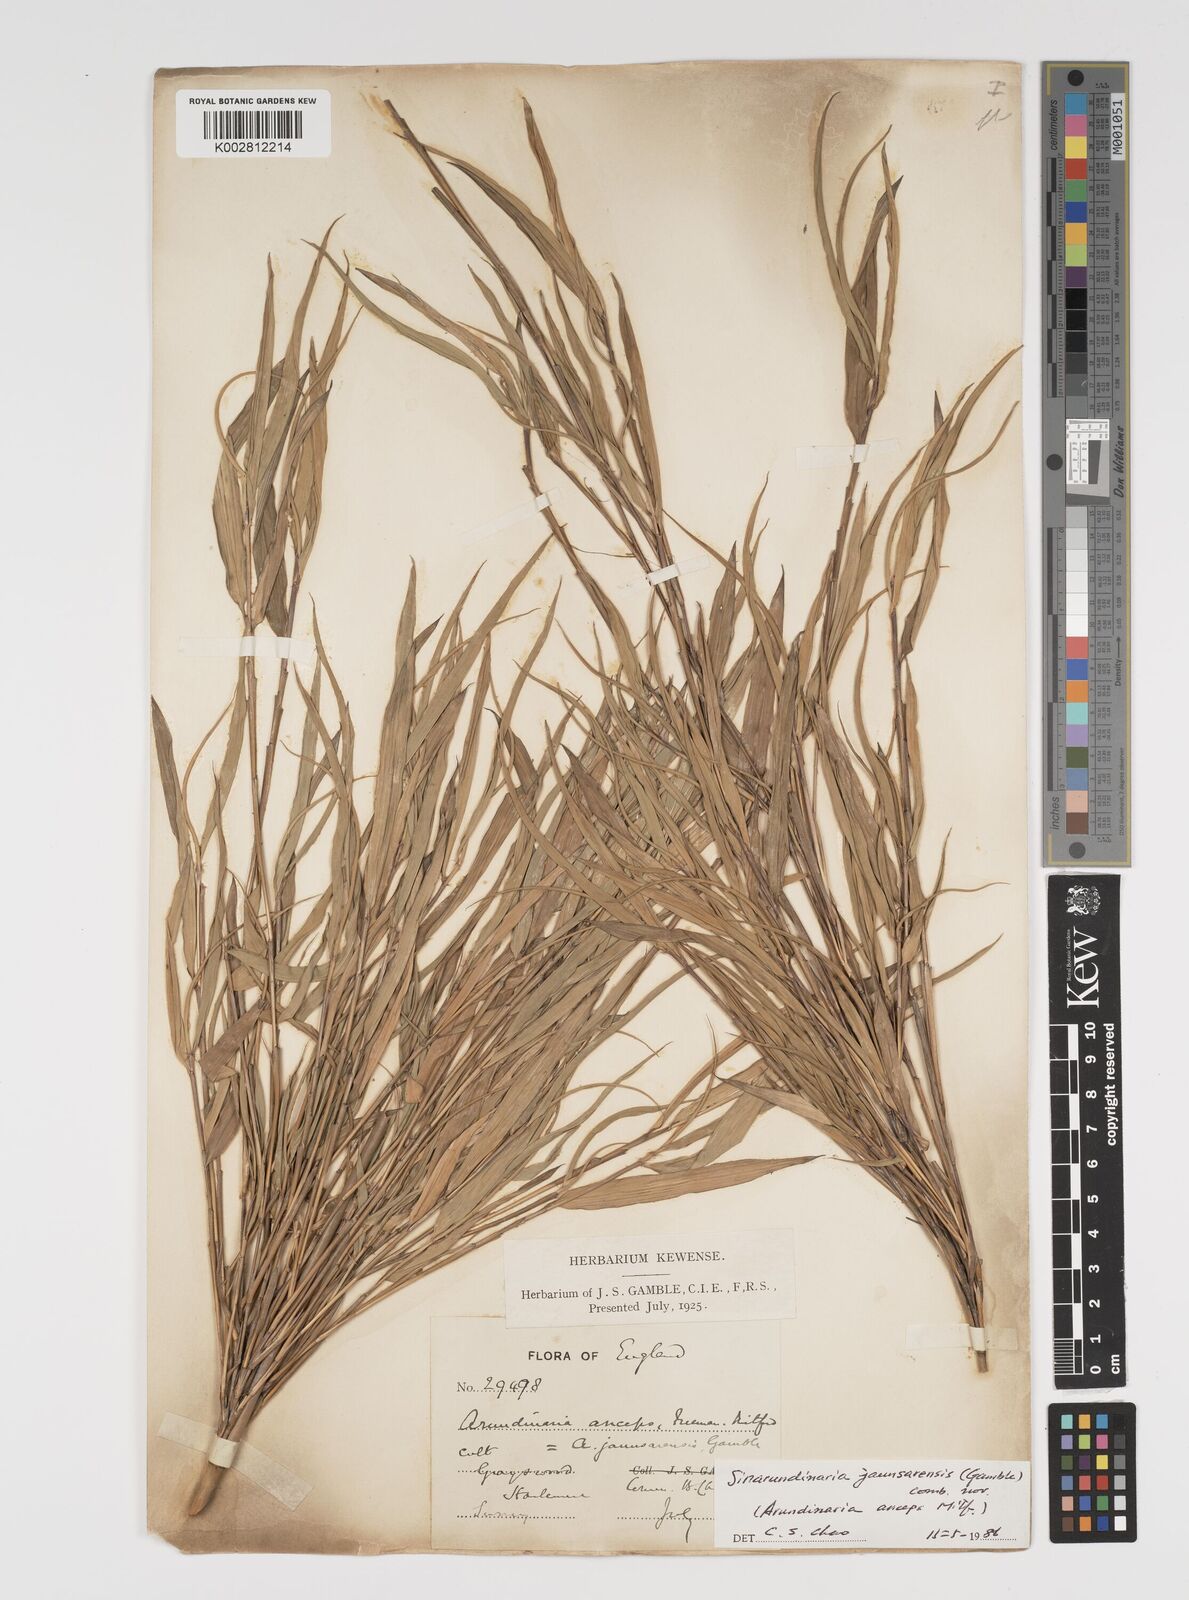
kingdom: Plantae
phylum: Tracheophyta
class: Liliopsida
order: Poales
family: Poaceae
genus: Yushania
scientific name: Yushania anceps
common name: Indian fountain-bamboo
